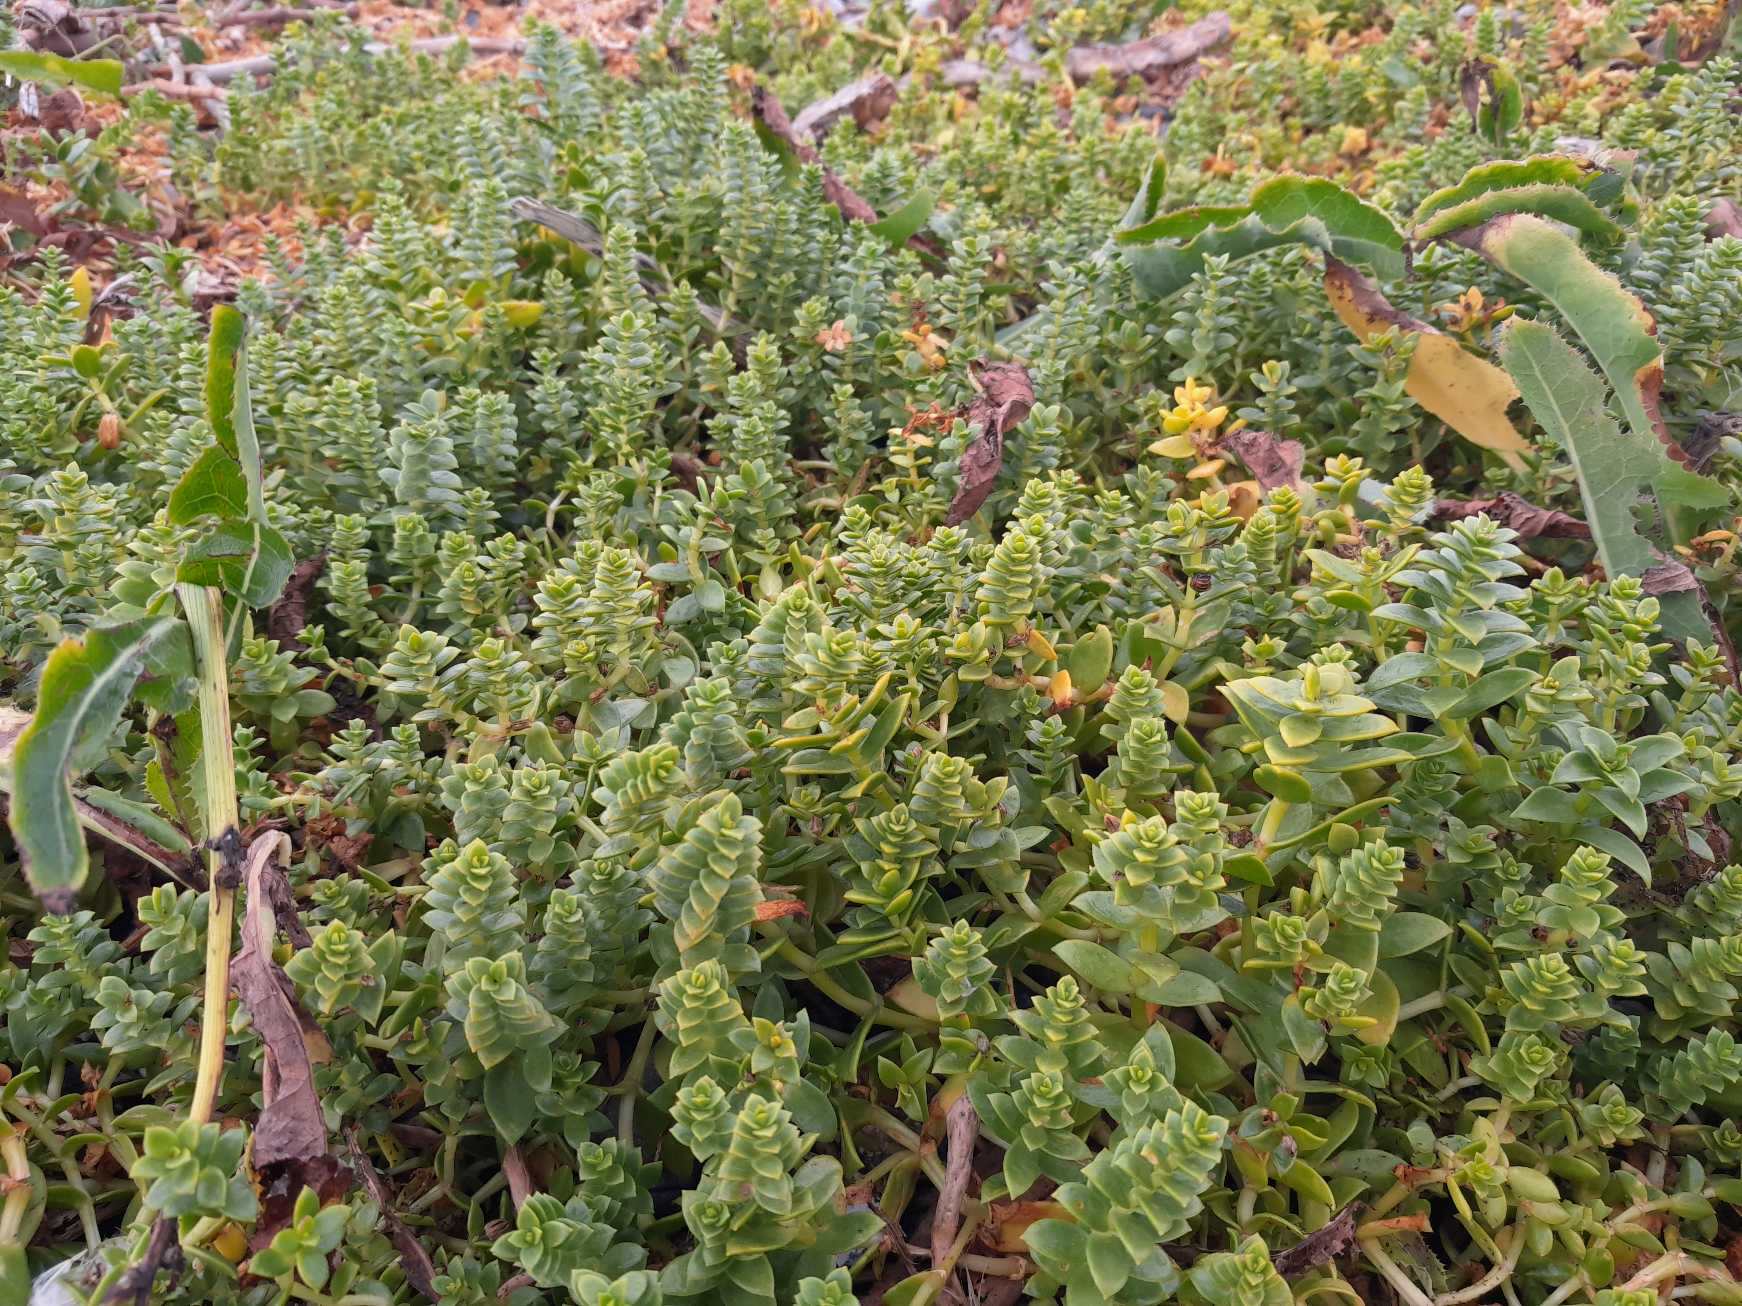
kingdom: Plantae
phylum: Tracheophyta
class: Magnoliopsida
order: Caryophyllales
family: Caryophyllaceae
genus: Honckenya
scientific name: Honckenya peploides
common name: Strandarve
